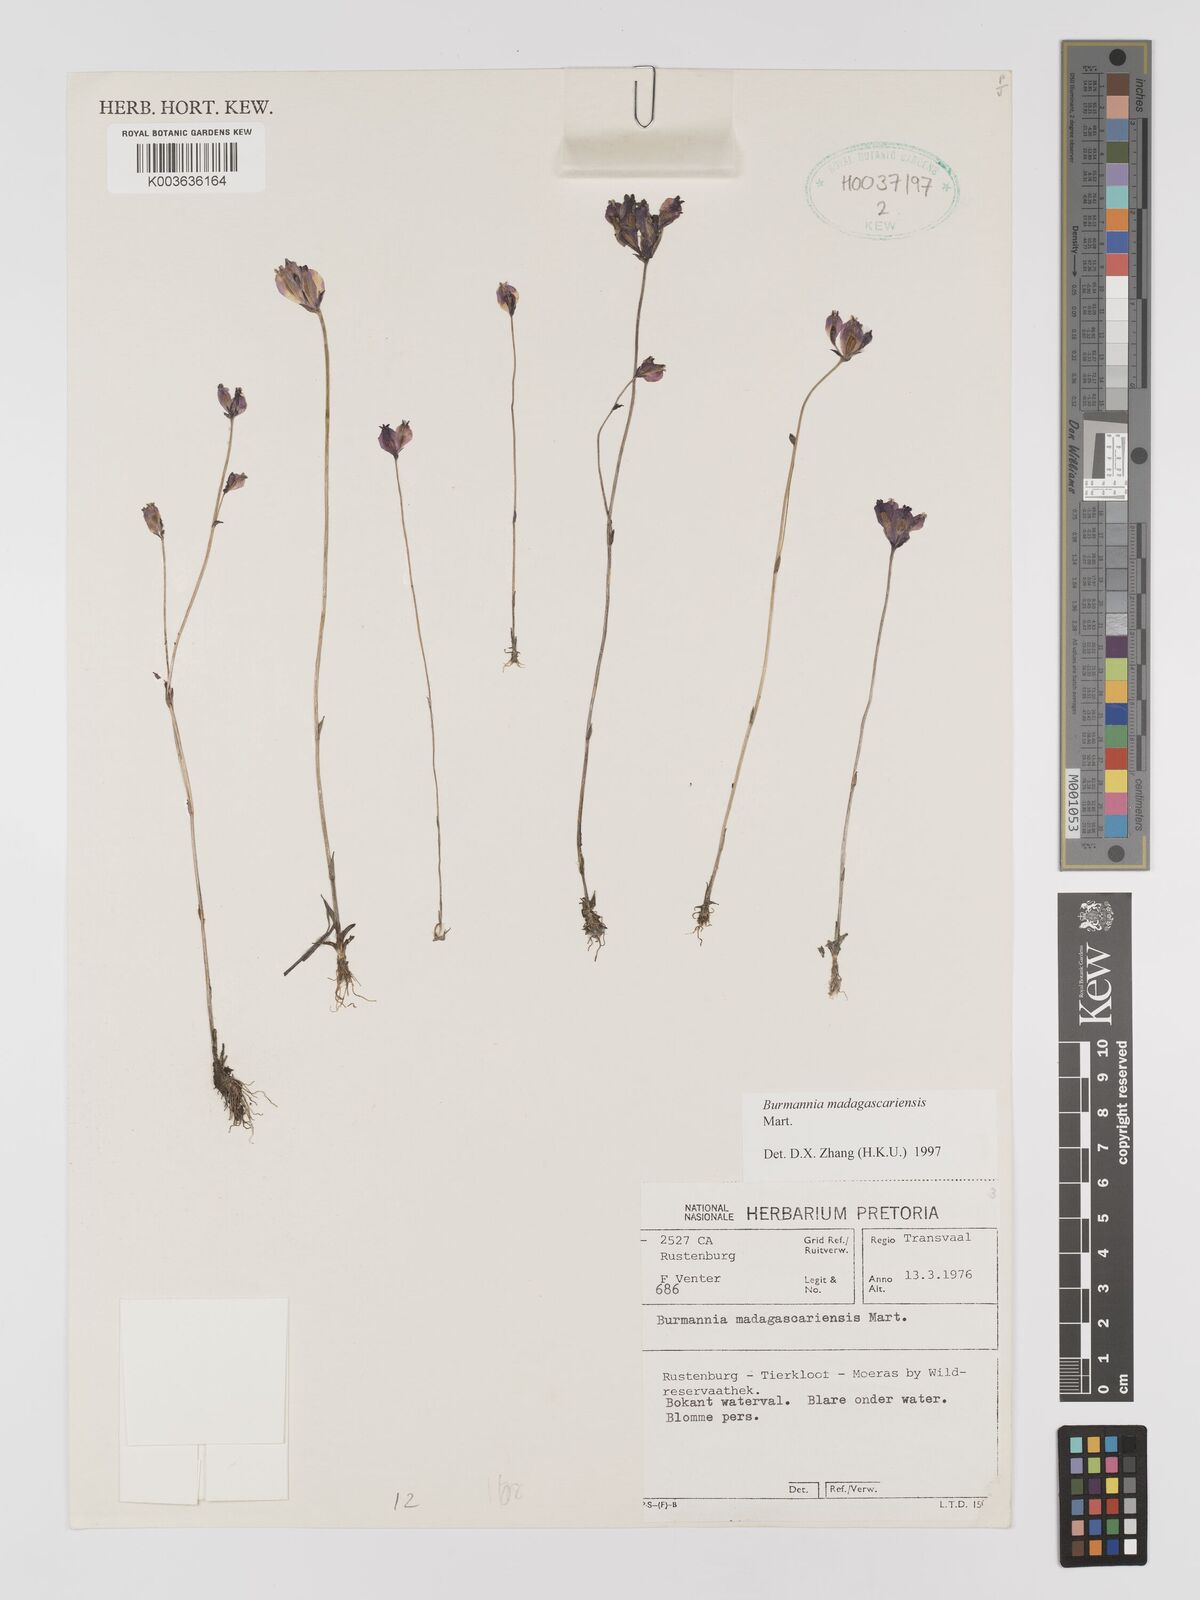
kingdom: Plantae
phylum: Tracheophyta
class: Liliopsida
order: Dioscoreales
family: Burmanniaceae
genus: Burmannia
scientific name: Burmannia madagascariensis
